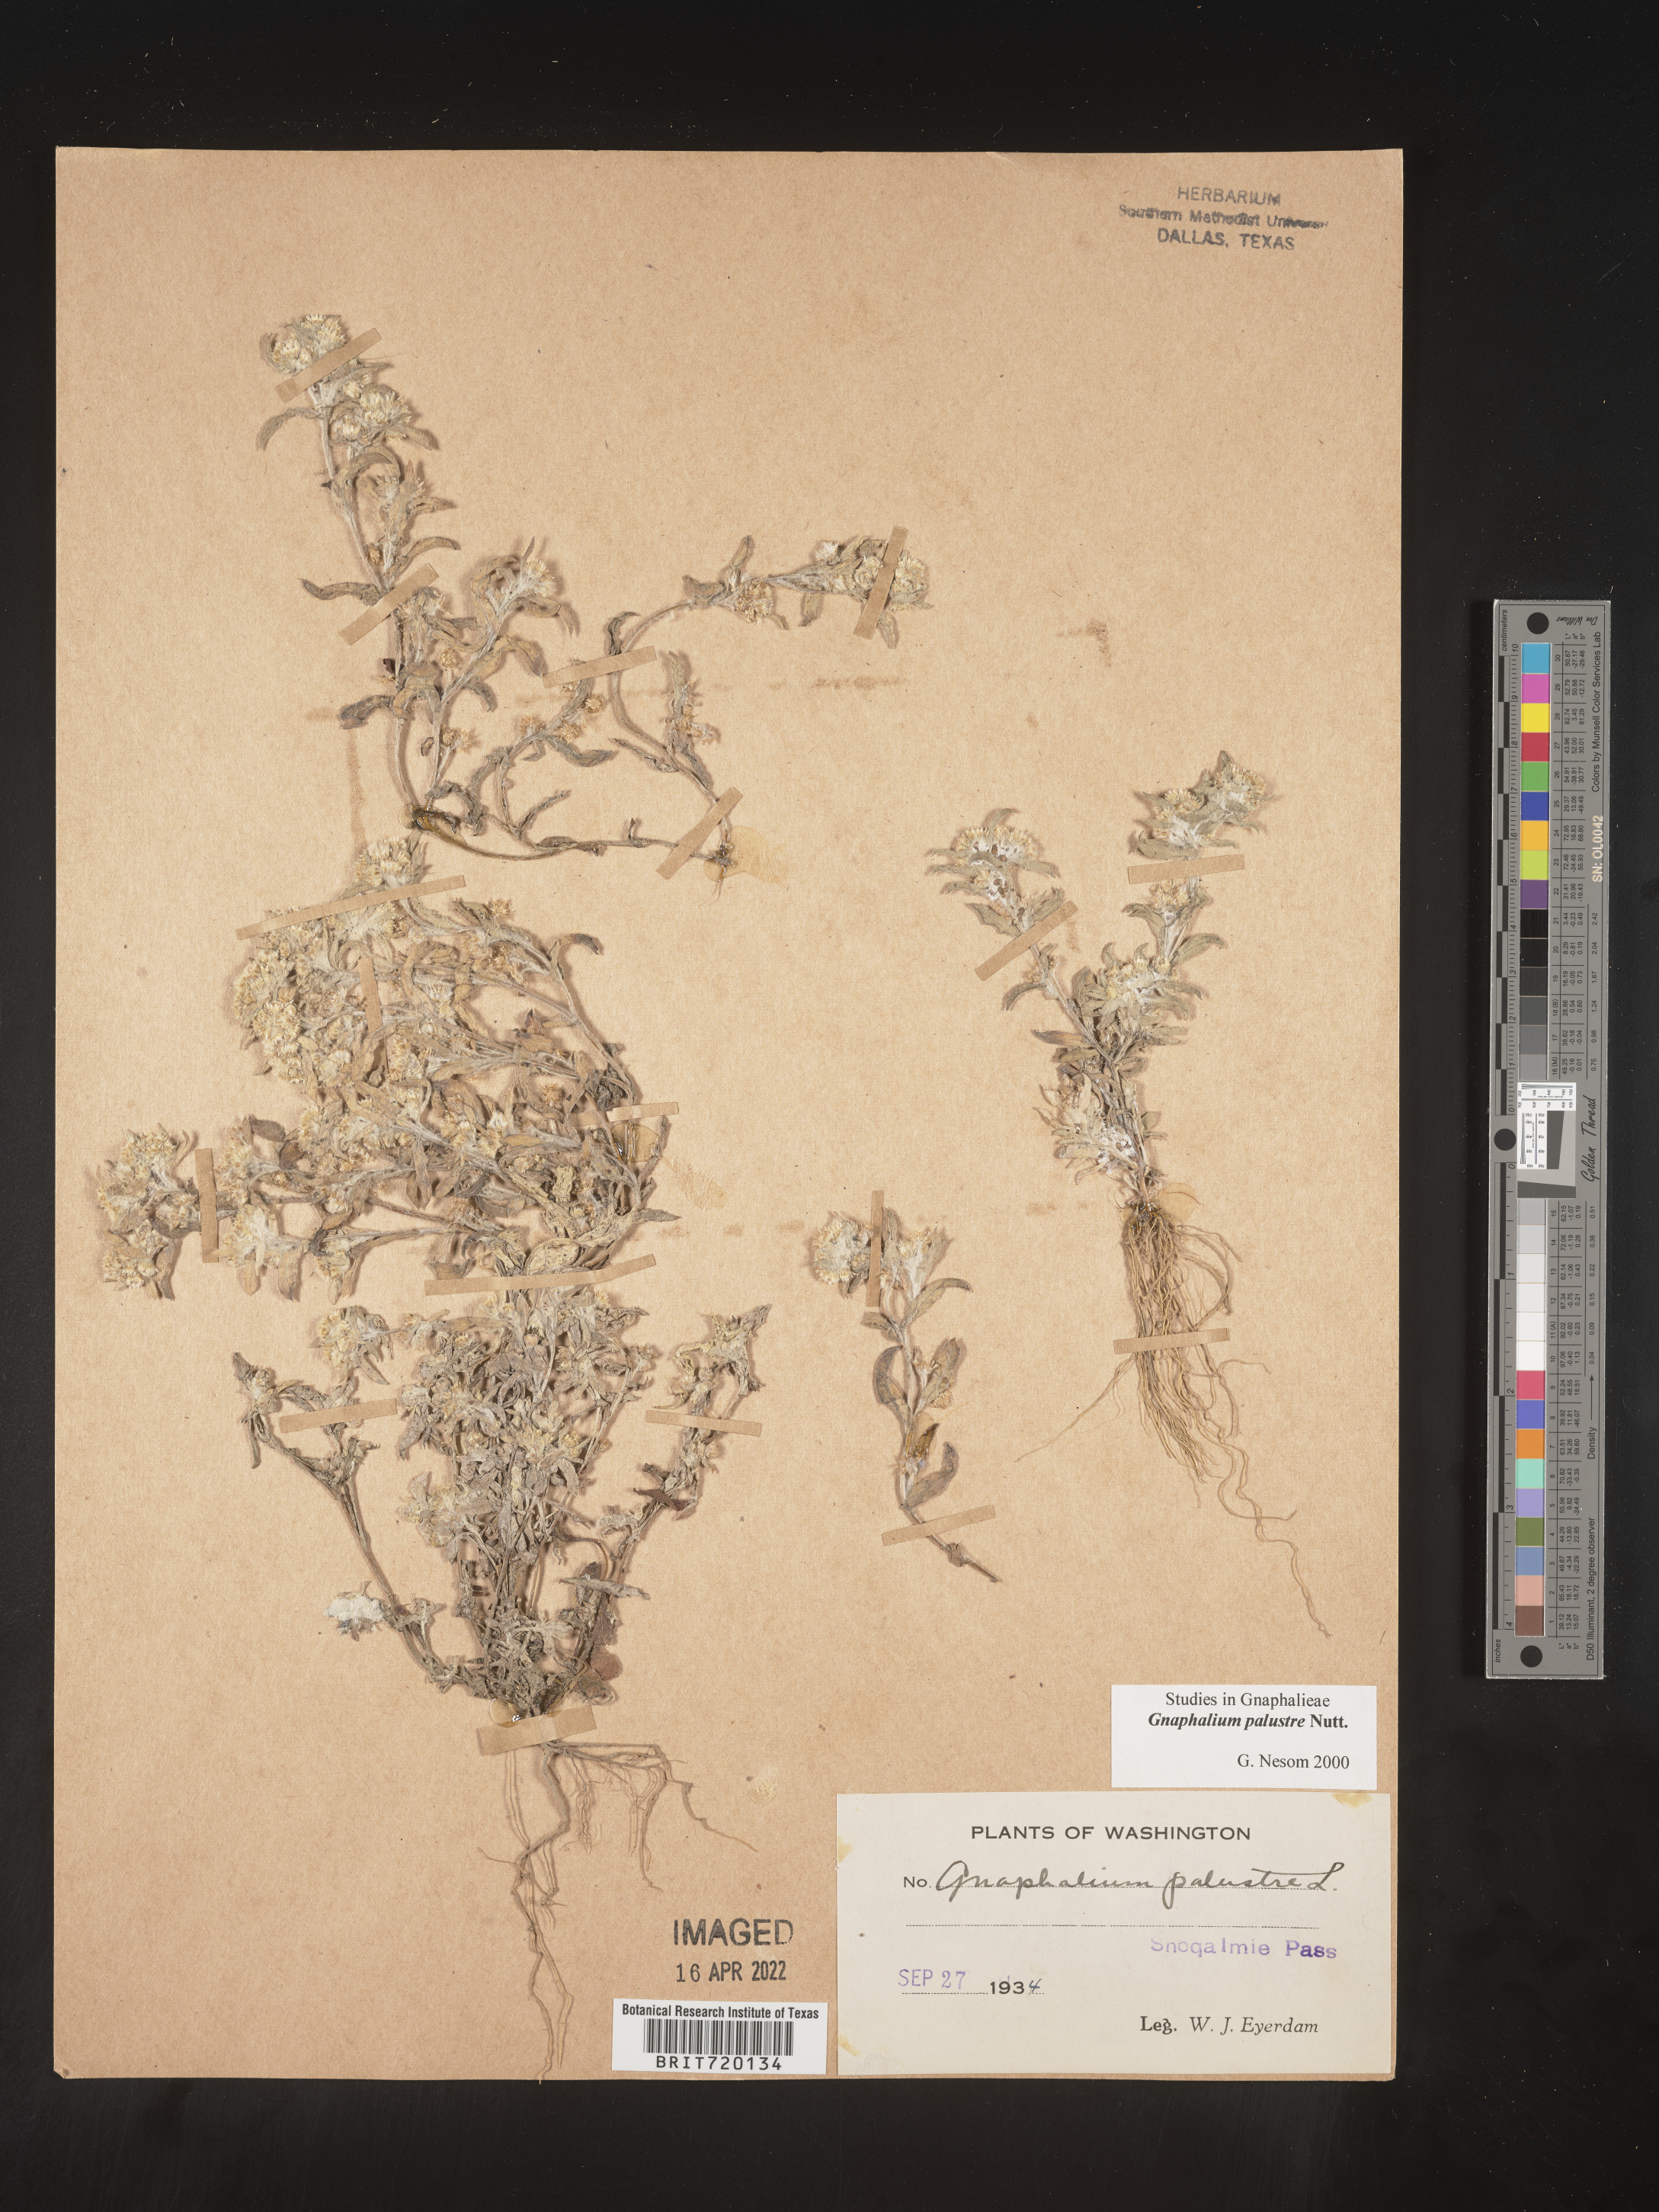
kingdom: Plantae
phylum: Tracheophyta
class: Magnoliopsida
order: Asterales
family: Asteraceae
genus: Gnaphalium
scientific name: Gnaphalium palustre
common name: Western marsh cudweed
